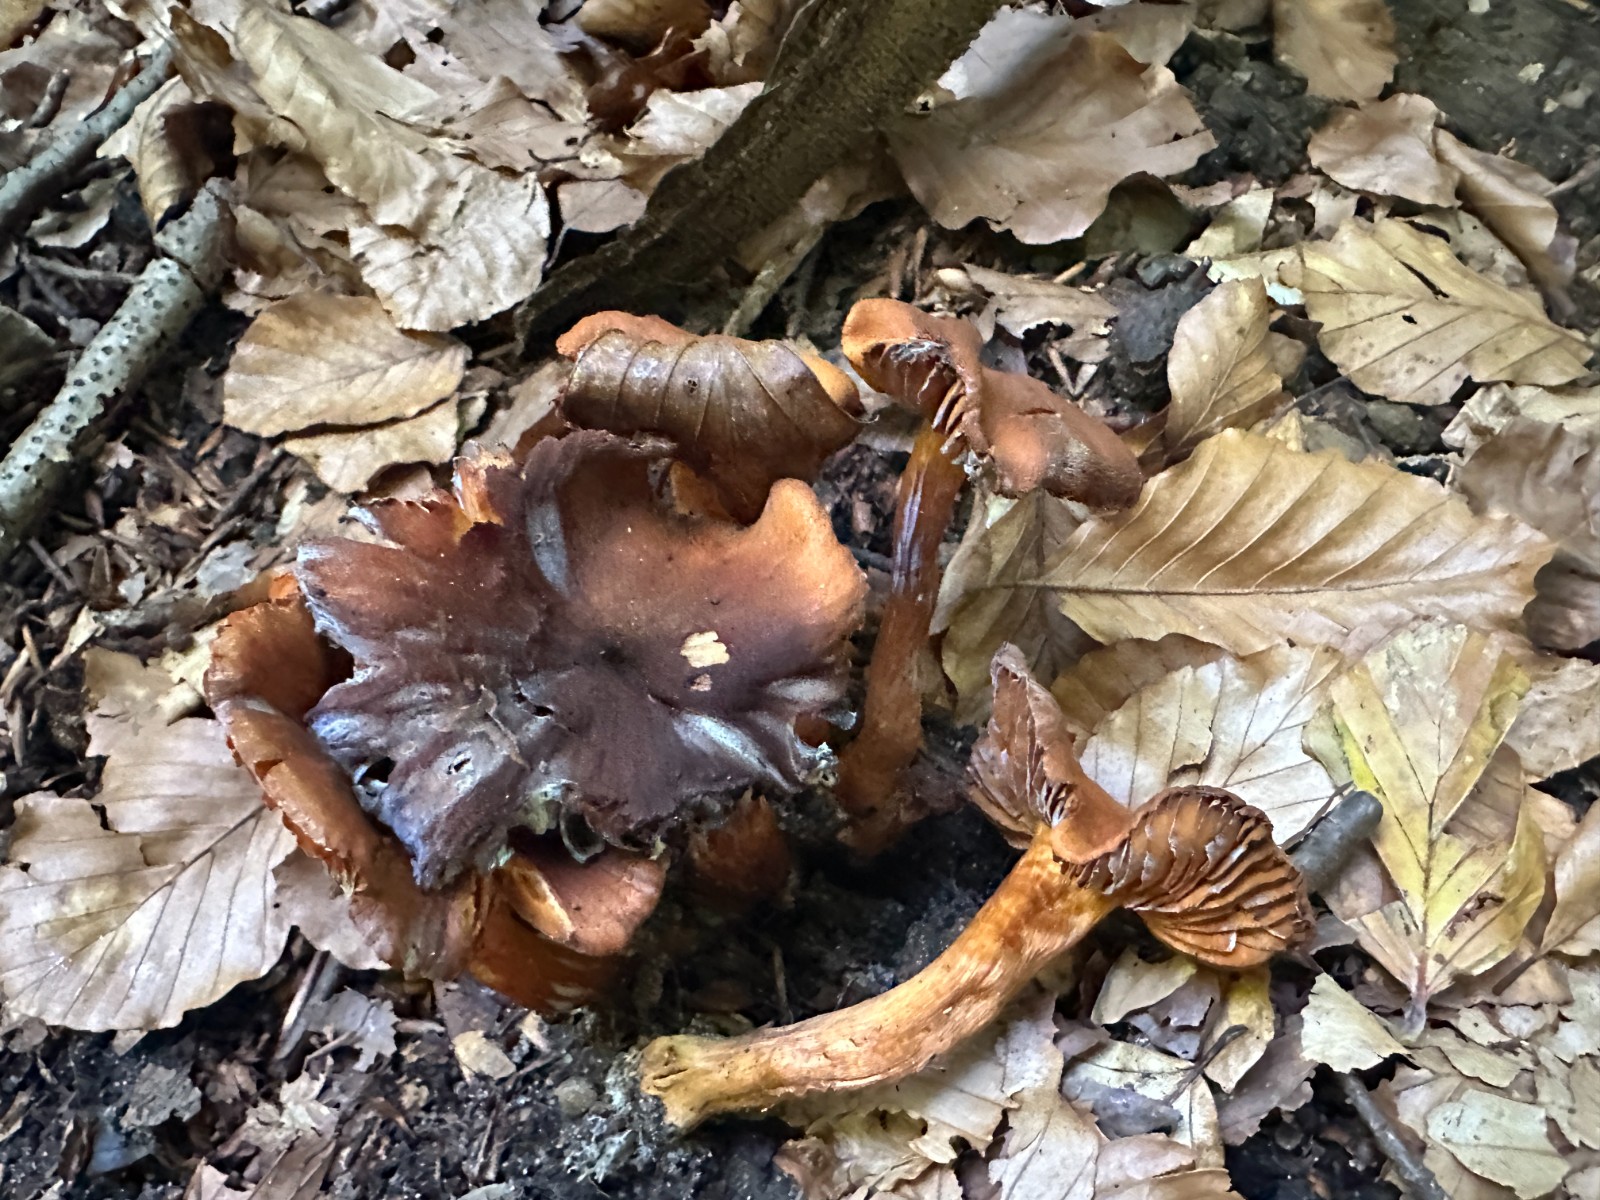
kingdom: Fungi
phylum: Basidiomycota
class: Agaricomycetes
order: Agaricales
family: Cortinariaceae
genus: Aureonarius
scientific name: Aureonarius limonius
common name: orangegul slørhat
